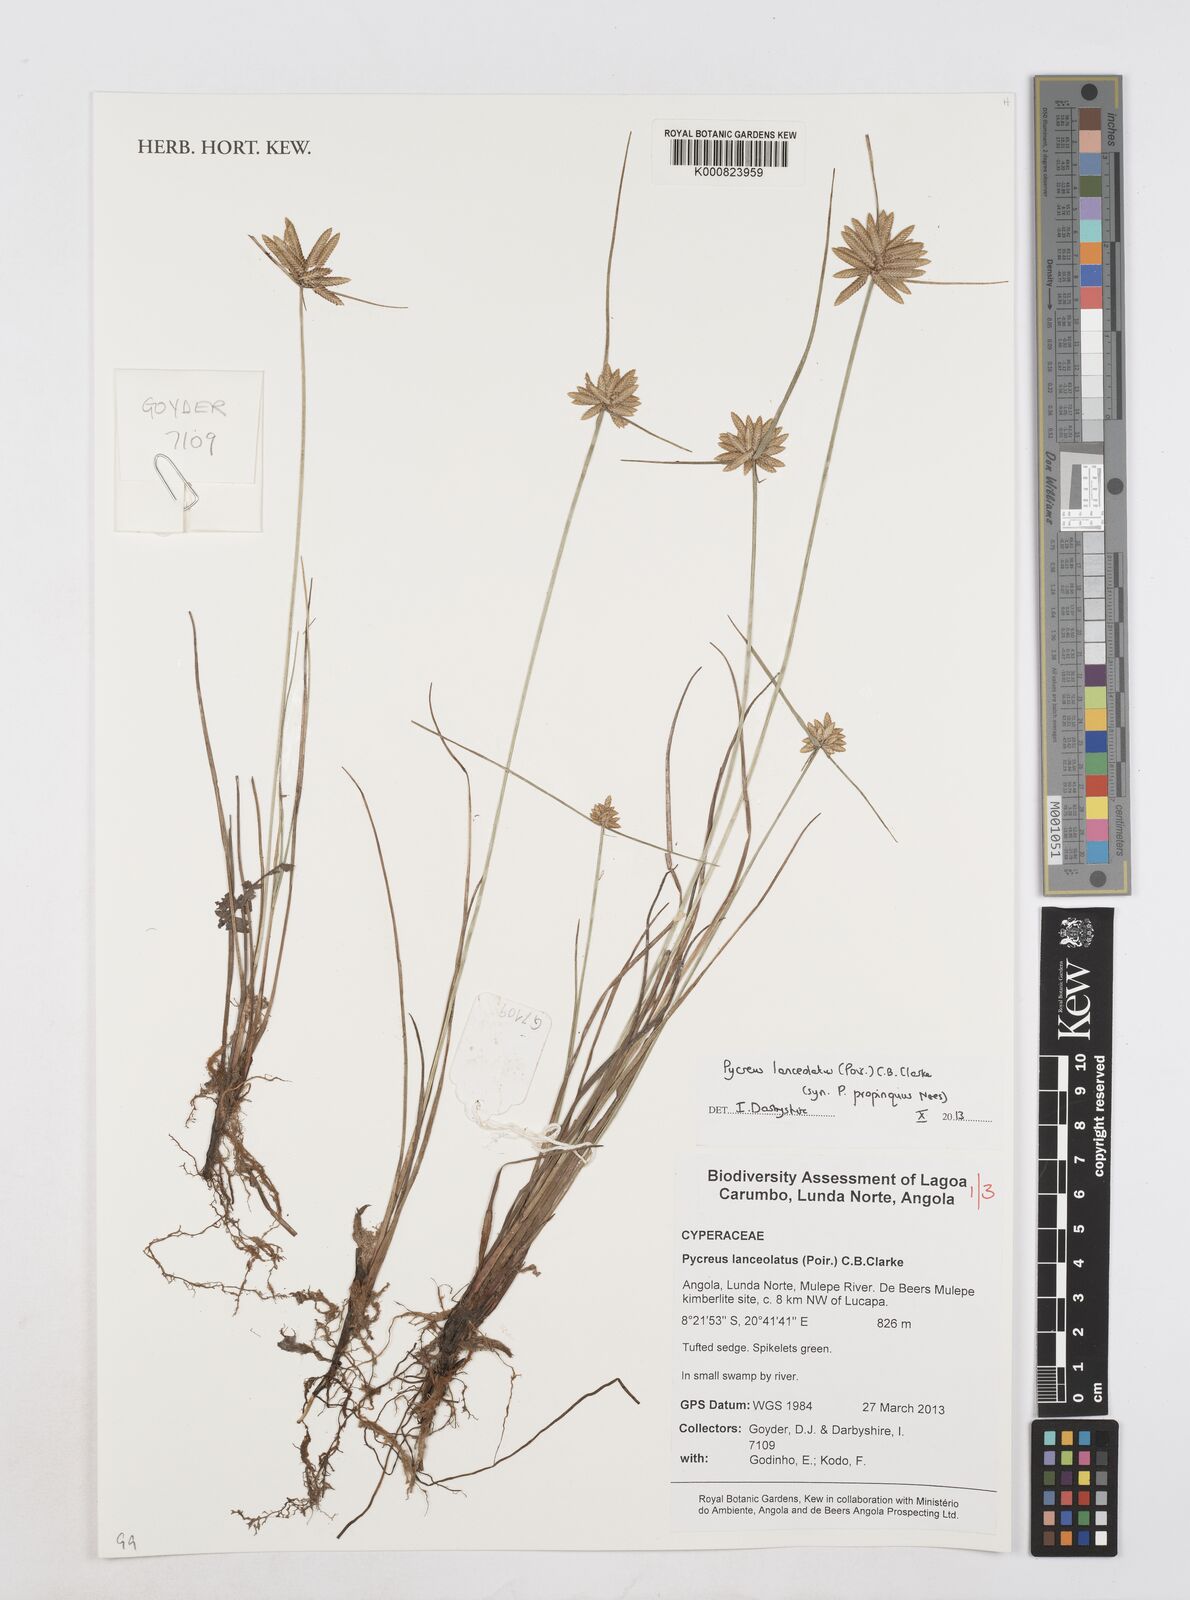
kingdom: Plantae
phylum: Tracheophyta
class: Liliopsida
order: Poales
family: Cyperaceae
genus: Cyperus
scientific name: Cyperus
